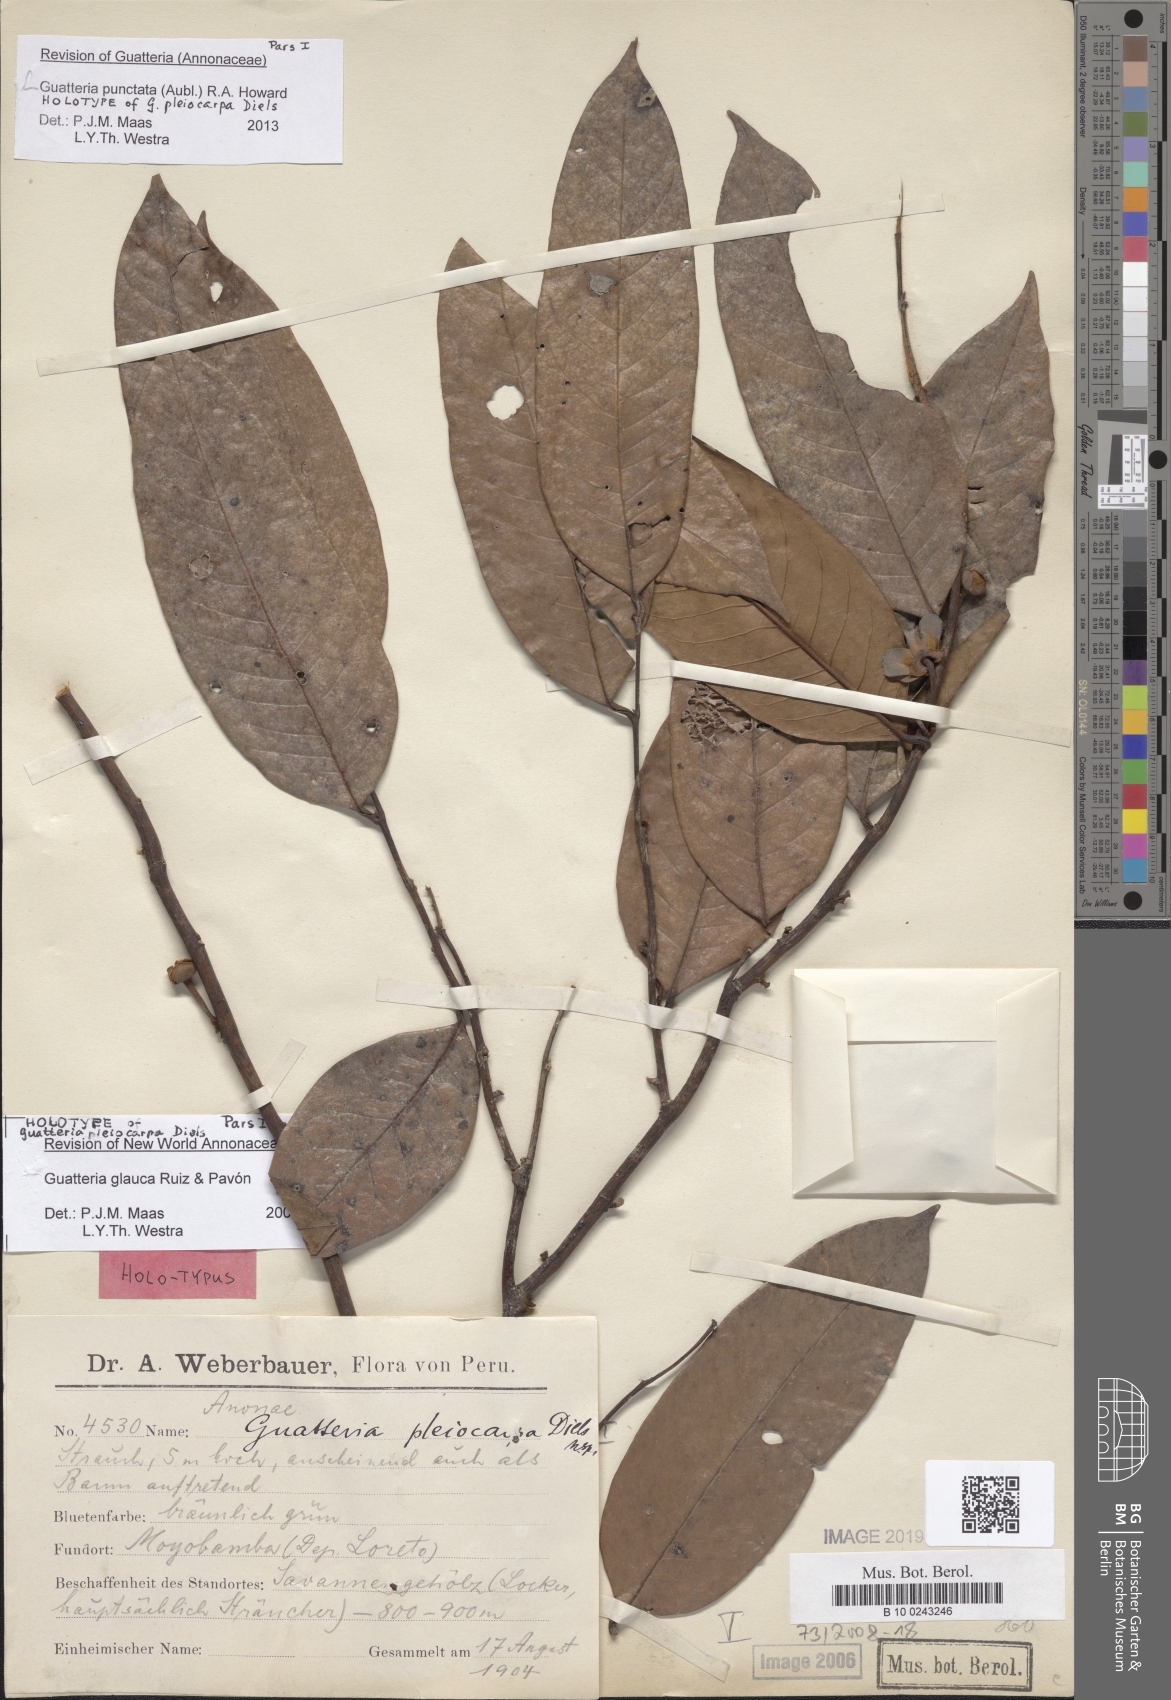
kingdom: Plantae
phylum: Tracheophyta
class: Magnoliopsida
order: Magnoliales
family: Annonaceae
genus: Guatteria
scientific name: Guatteria punctata
